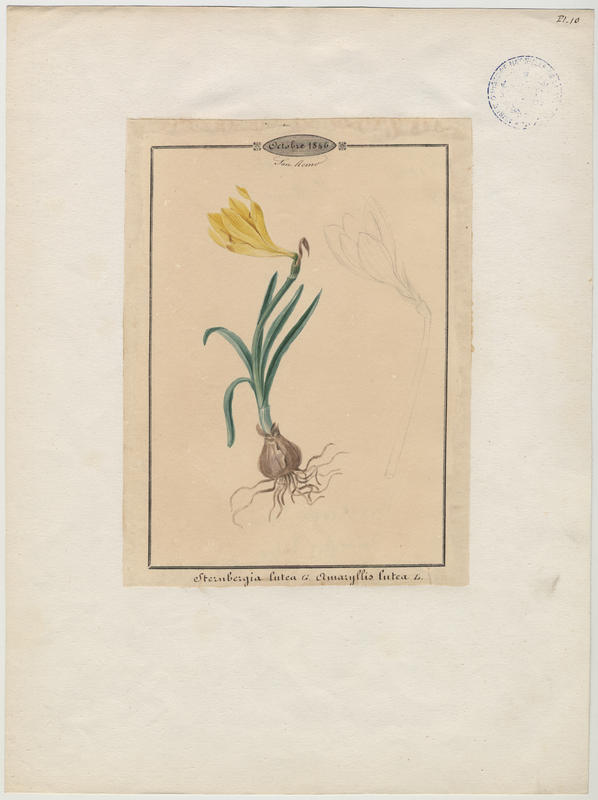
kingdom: Plantae
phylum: Tracheophyta
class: Liliopsida
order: Asparagales
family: Amaryllidaceae
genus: Sternbergia
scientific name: Sternbergia lutea
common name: Winter daffodil
